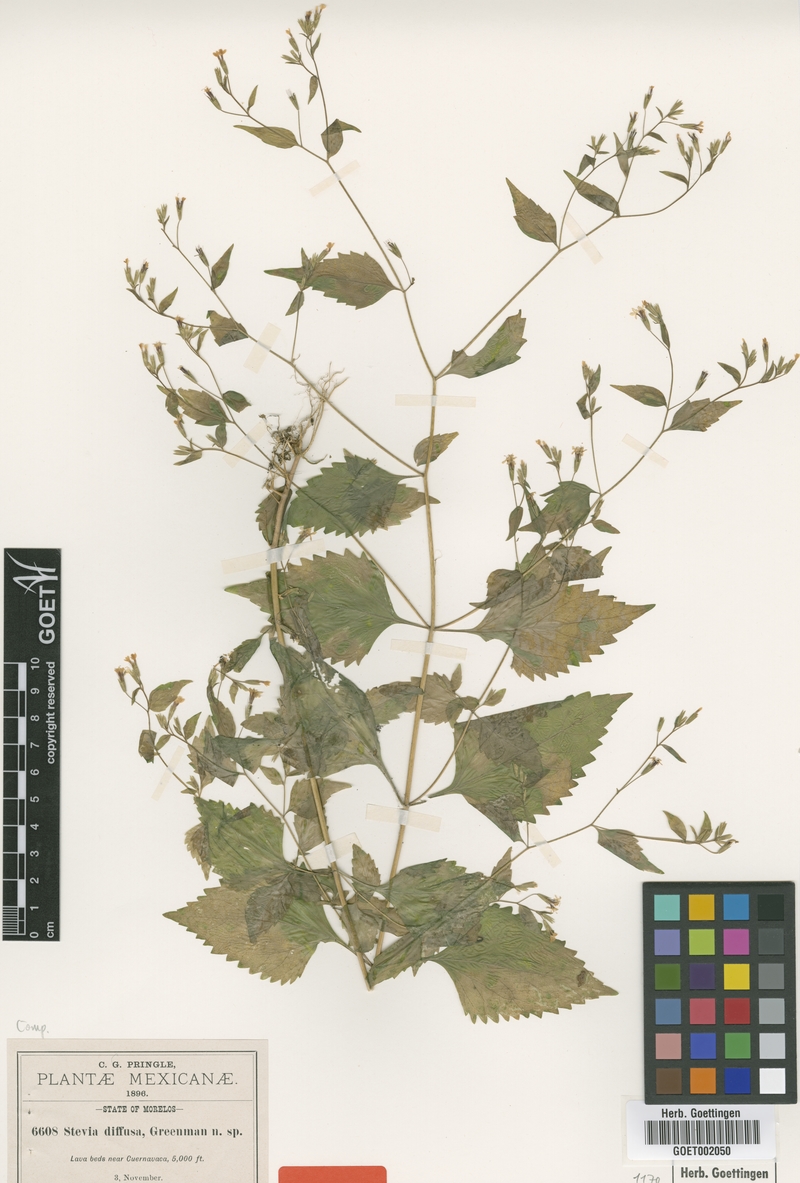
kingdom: Plantae
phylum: Tracheophyta
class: Magnoliopsida
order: Asterales
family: Asteraceae
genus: Stevia
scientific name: Stevia aschenborniana
